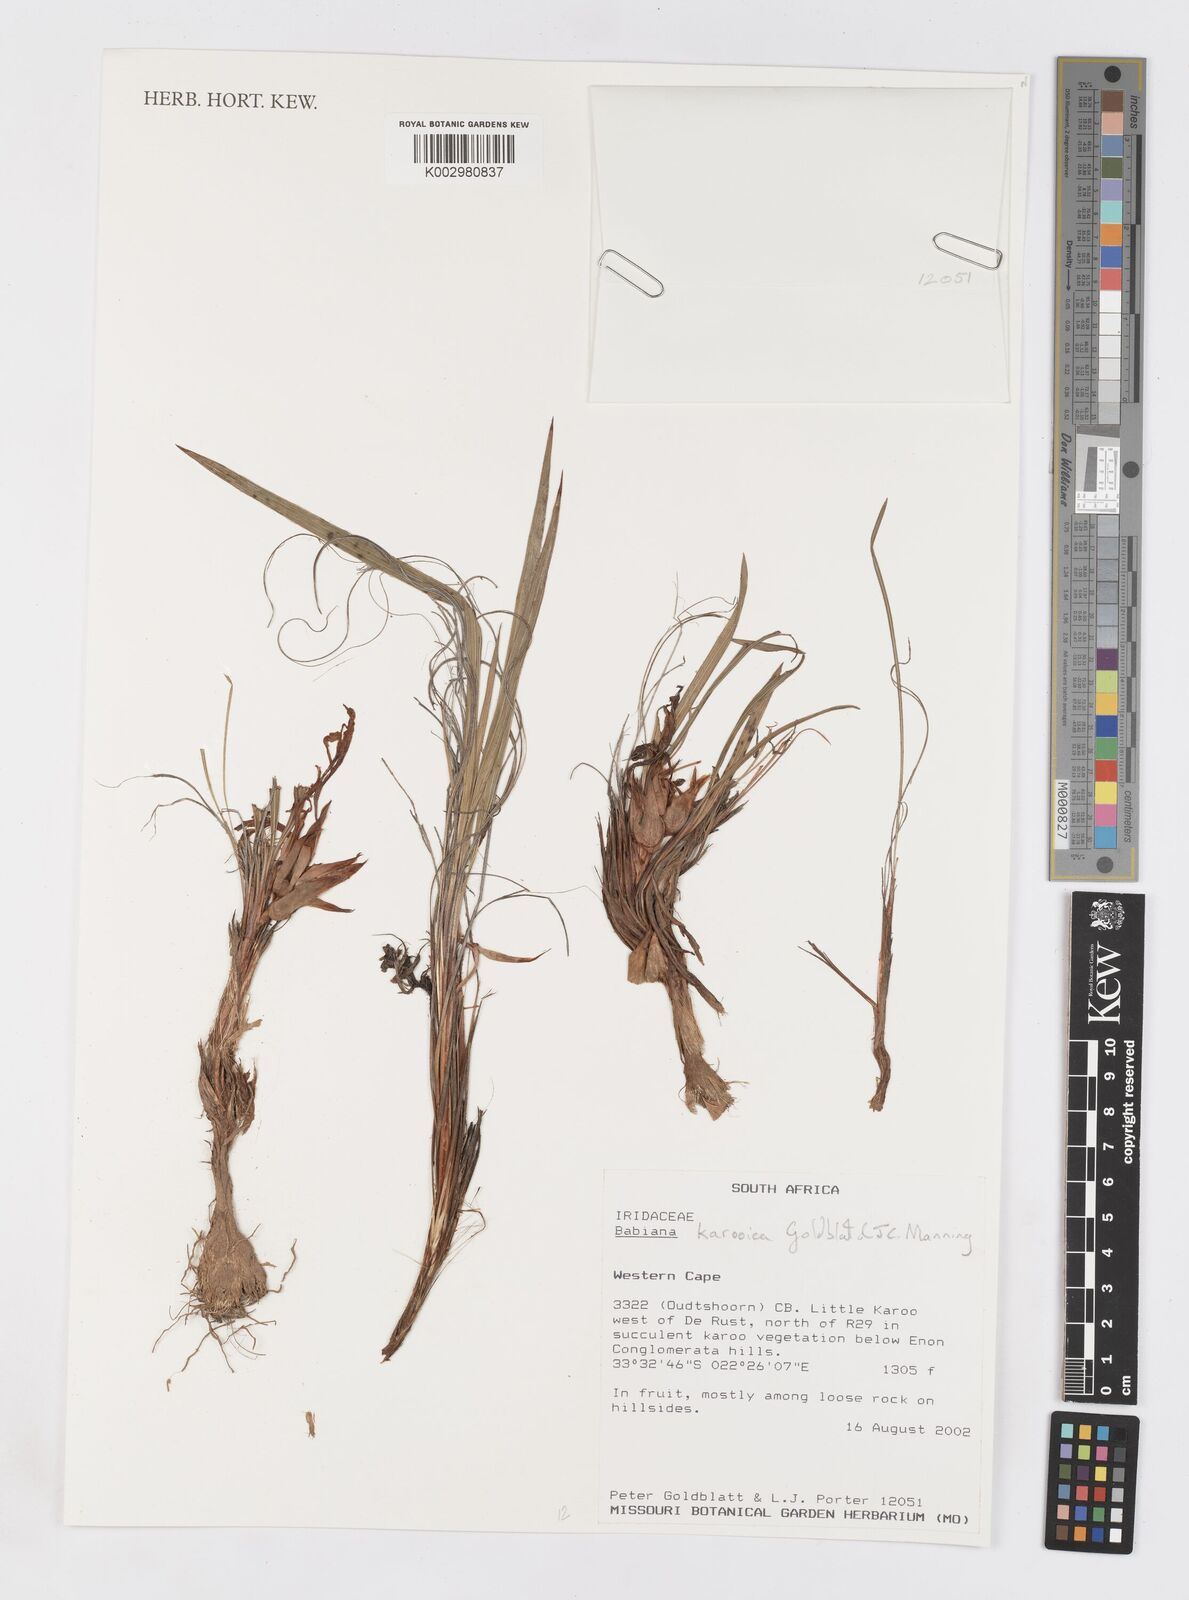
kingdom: Plantae
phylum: Tracheophyta
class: Liliopsida
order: Asparagales
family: Iridaceae
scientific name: Iridaceae
